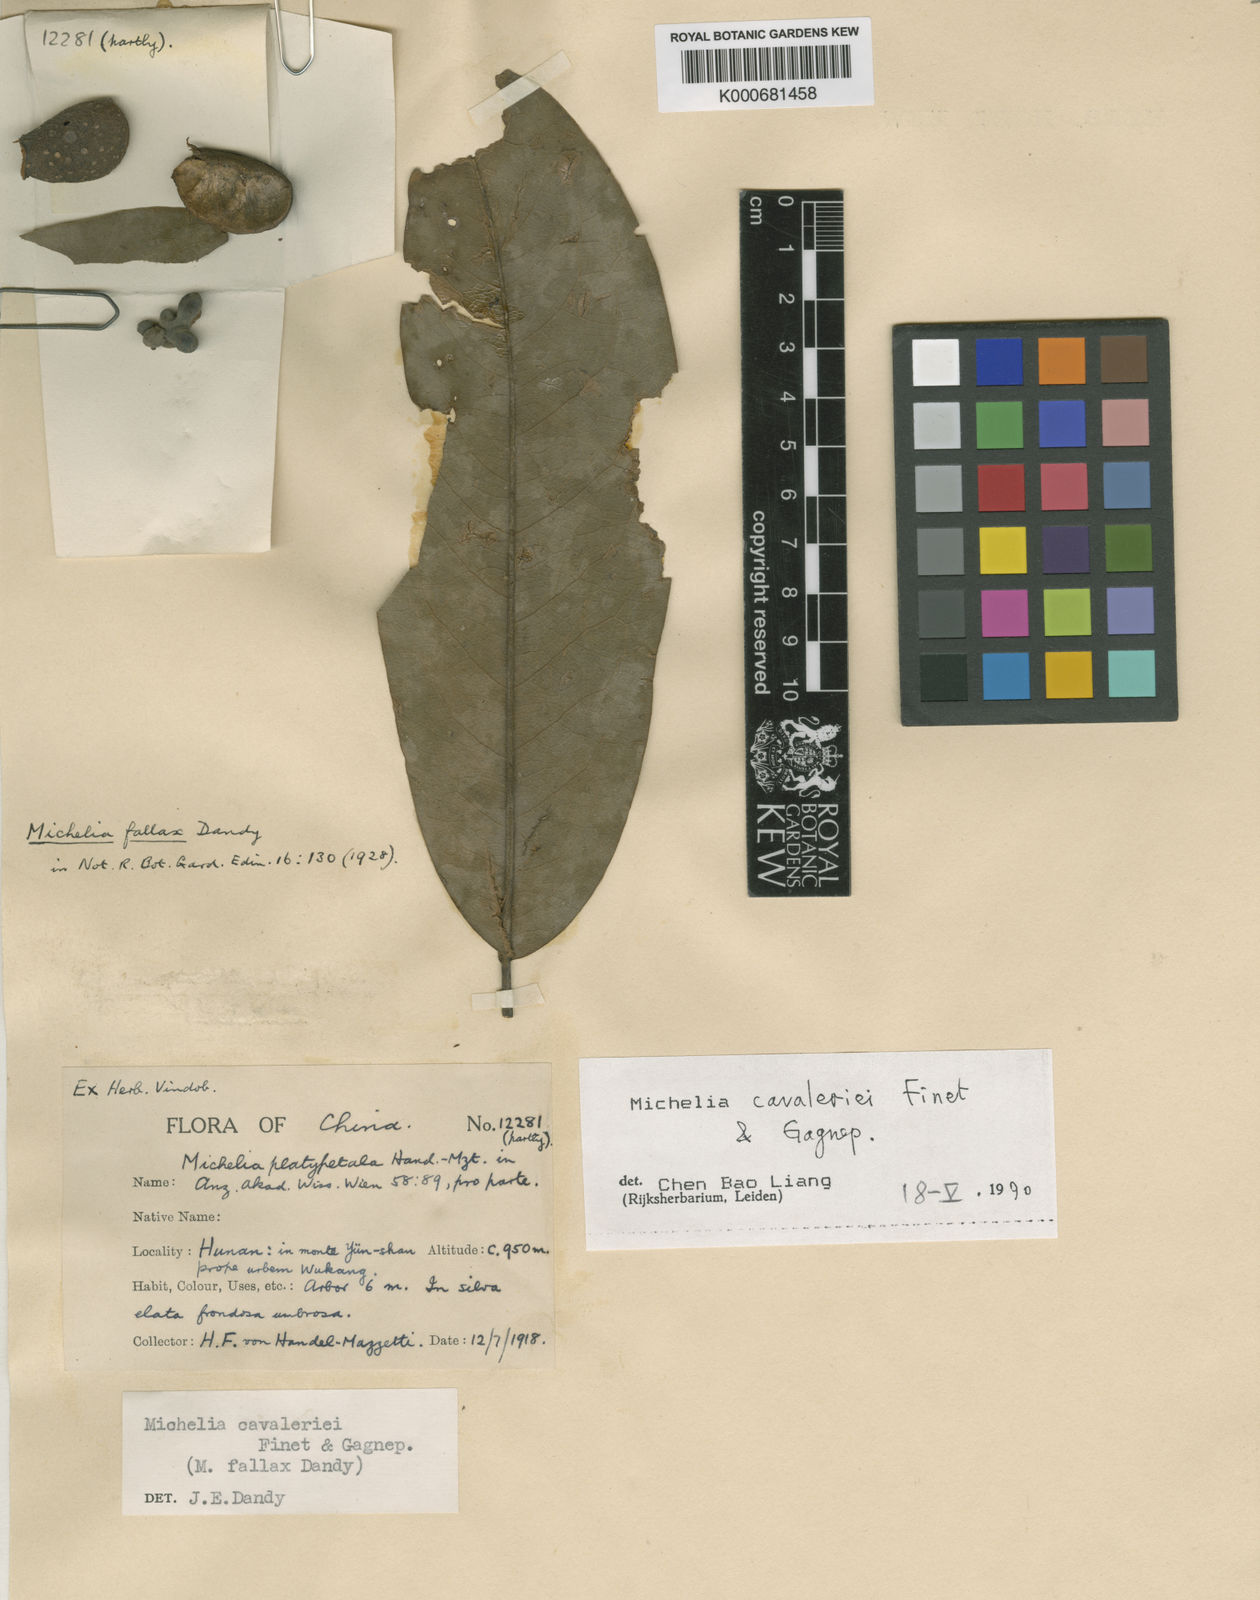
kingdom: Plantae
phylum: Tracheophyta
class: Magnoliopsida
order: Magnoliales
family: Magnoliaceae
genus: Magnolia
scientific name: Magnolia cavaleriei
